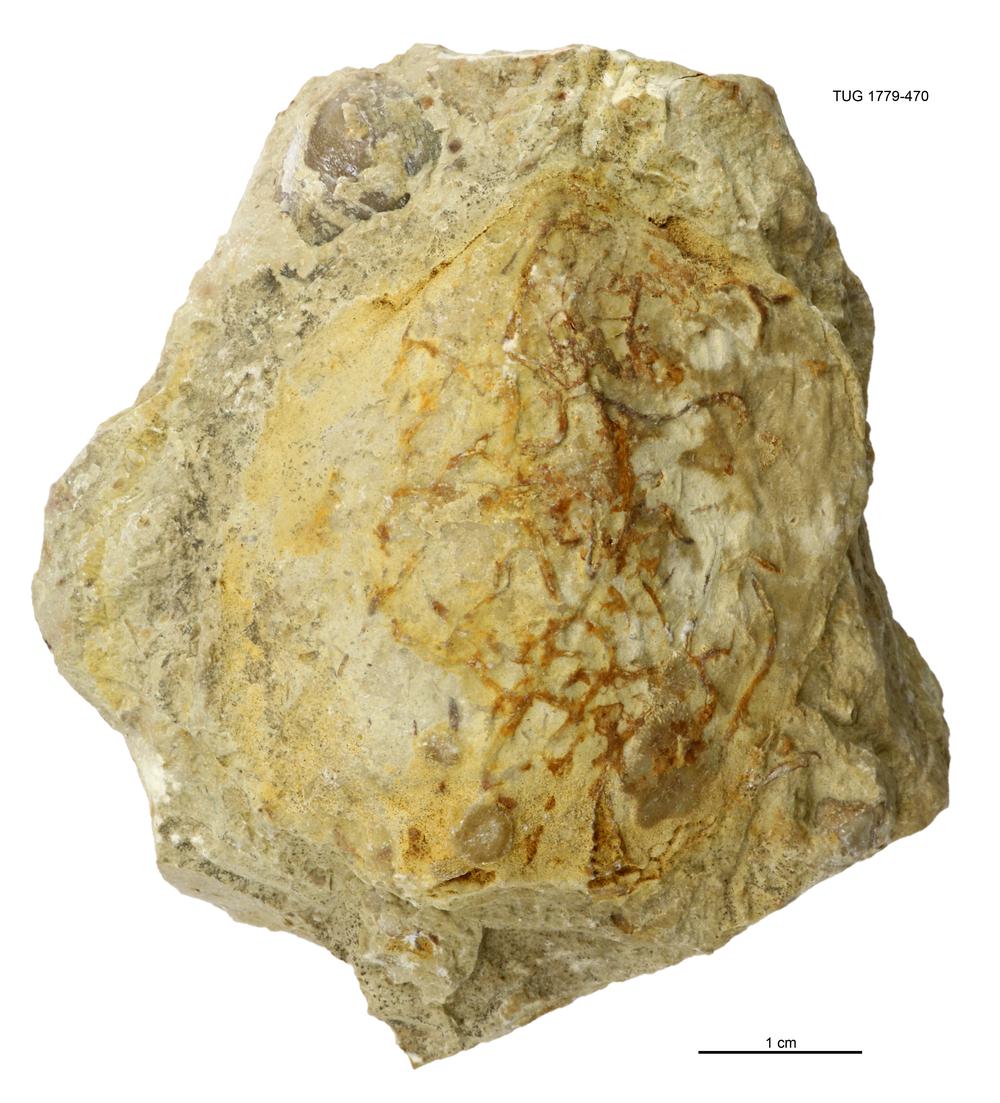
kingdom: Animalia
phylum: Mollusca
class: Bivalvia
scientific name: Bivalvia
